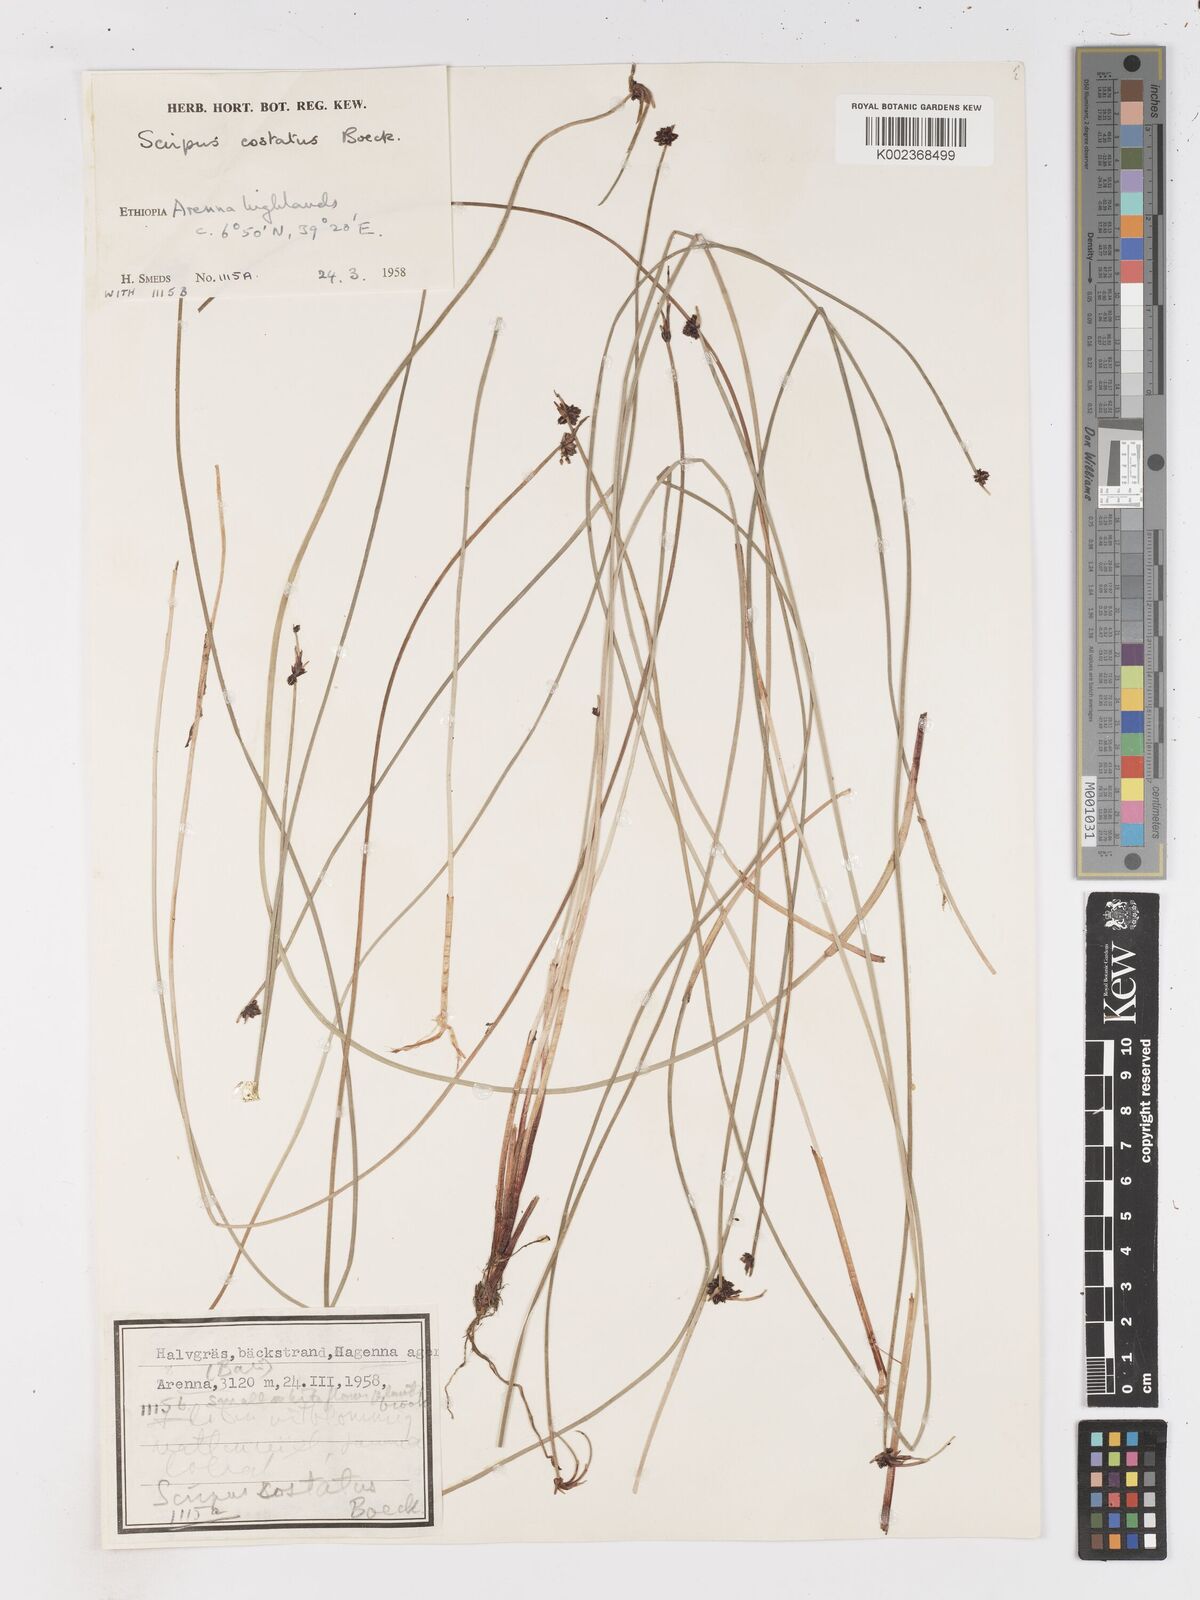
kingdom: Plantae
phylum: Tracheophyta
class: Liliopsida
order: Poales
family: Cyperaceae
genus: Isolepis
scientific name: Isolepis costata
